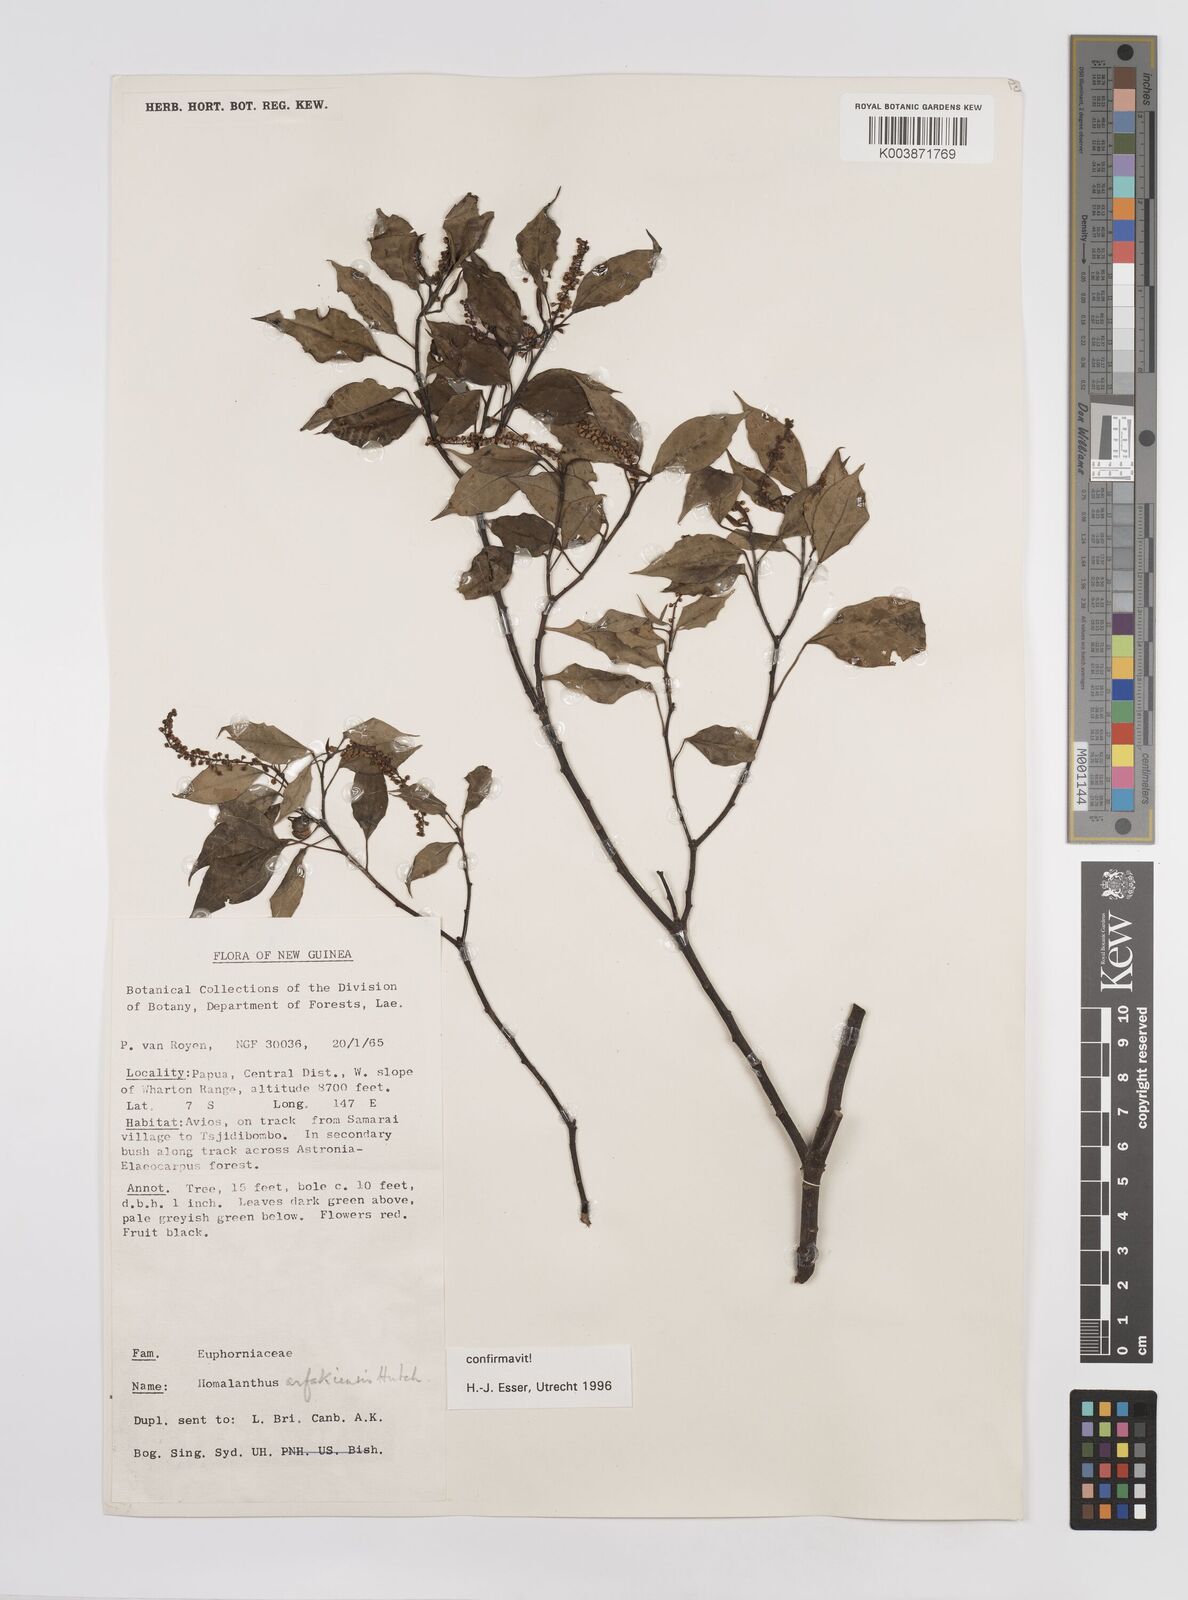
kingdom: Plantae
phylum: Tracheophyta
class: Magnoliopsida
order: Malpighiales
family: Euphorbiaceae
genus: Homalanthus
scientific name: Homalanthus arfakiensis
